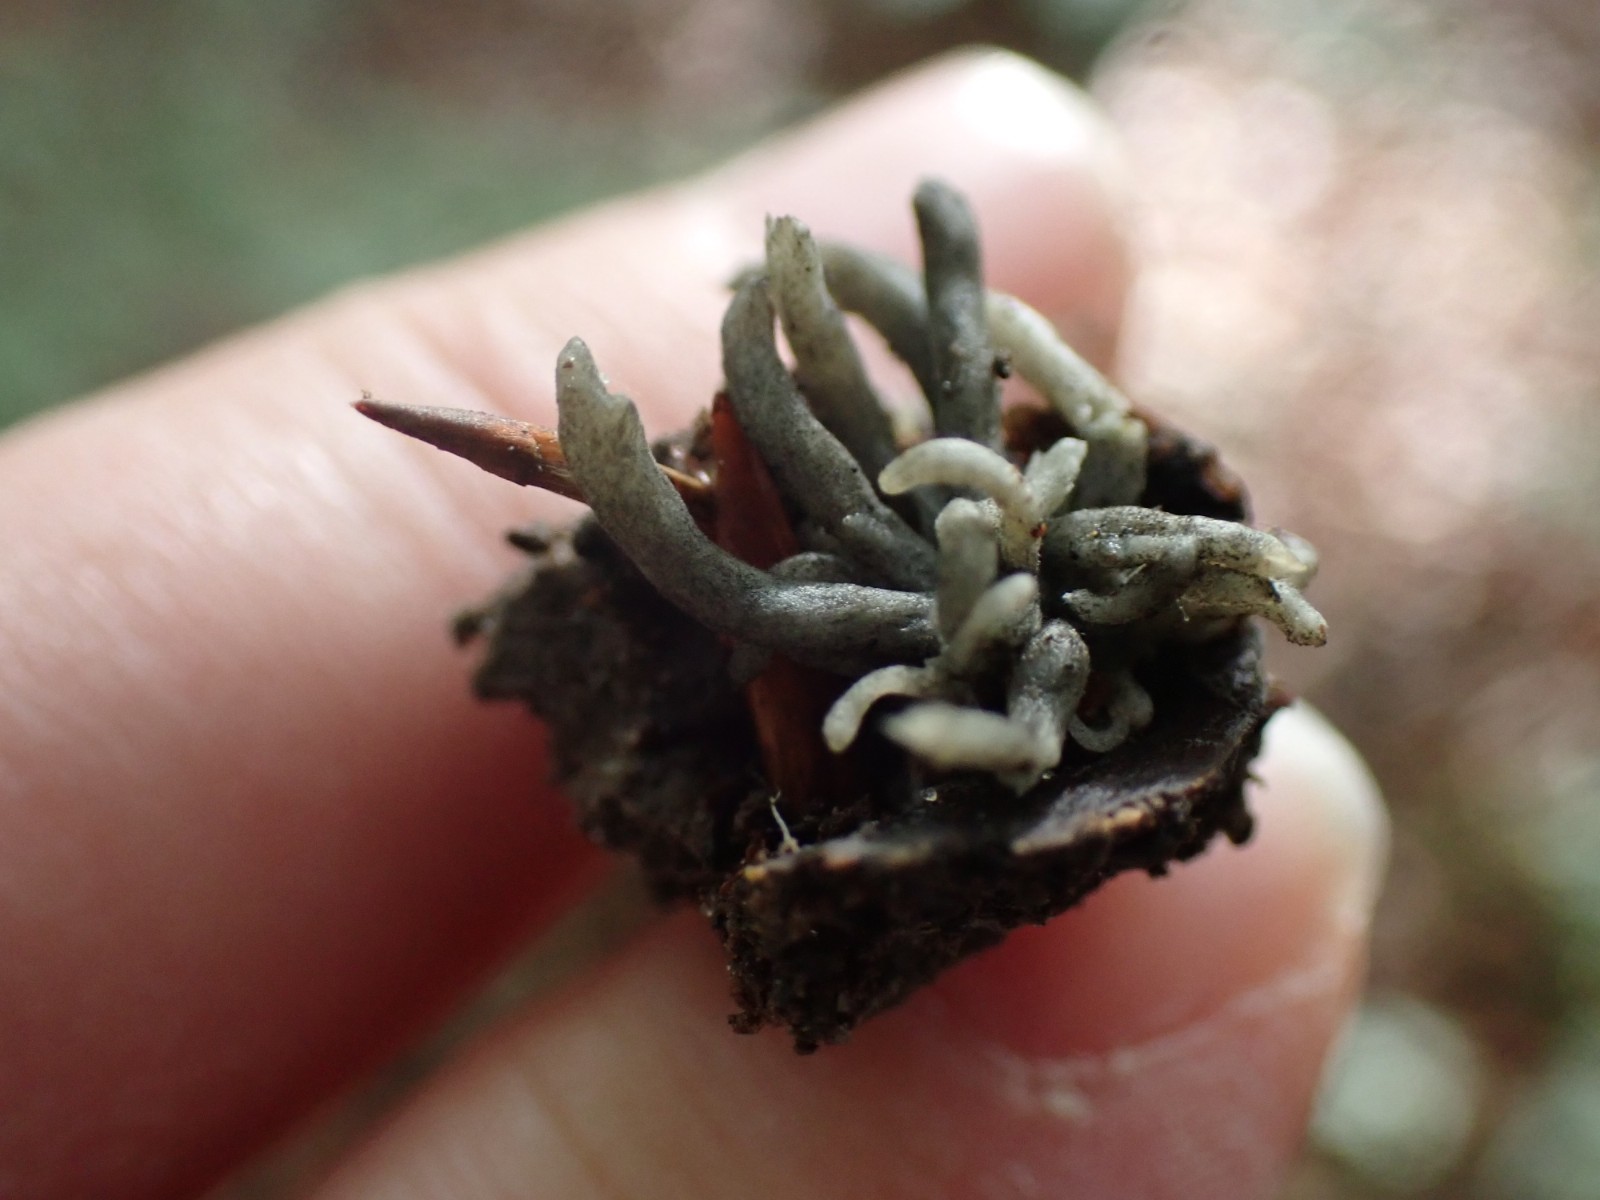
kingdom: Fungi
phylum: Ascomycota
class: Sordariomycetes
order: Sordariales
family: Helminthosphaeriaceae
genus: Helminthosphaeria
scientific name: Helminthosphaeria clavariarum
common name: trold-svampesnyltekerne
